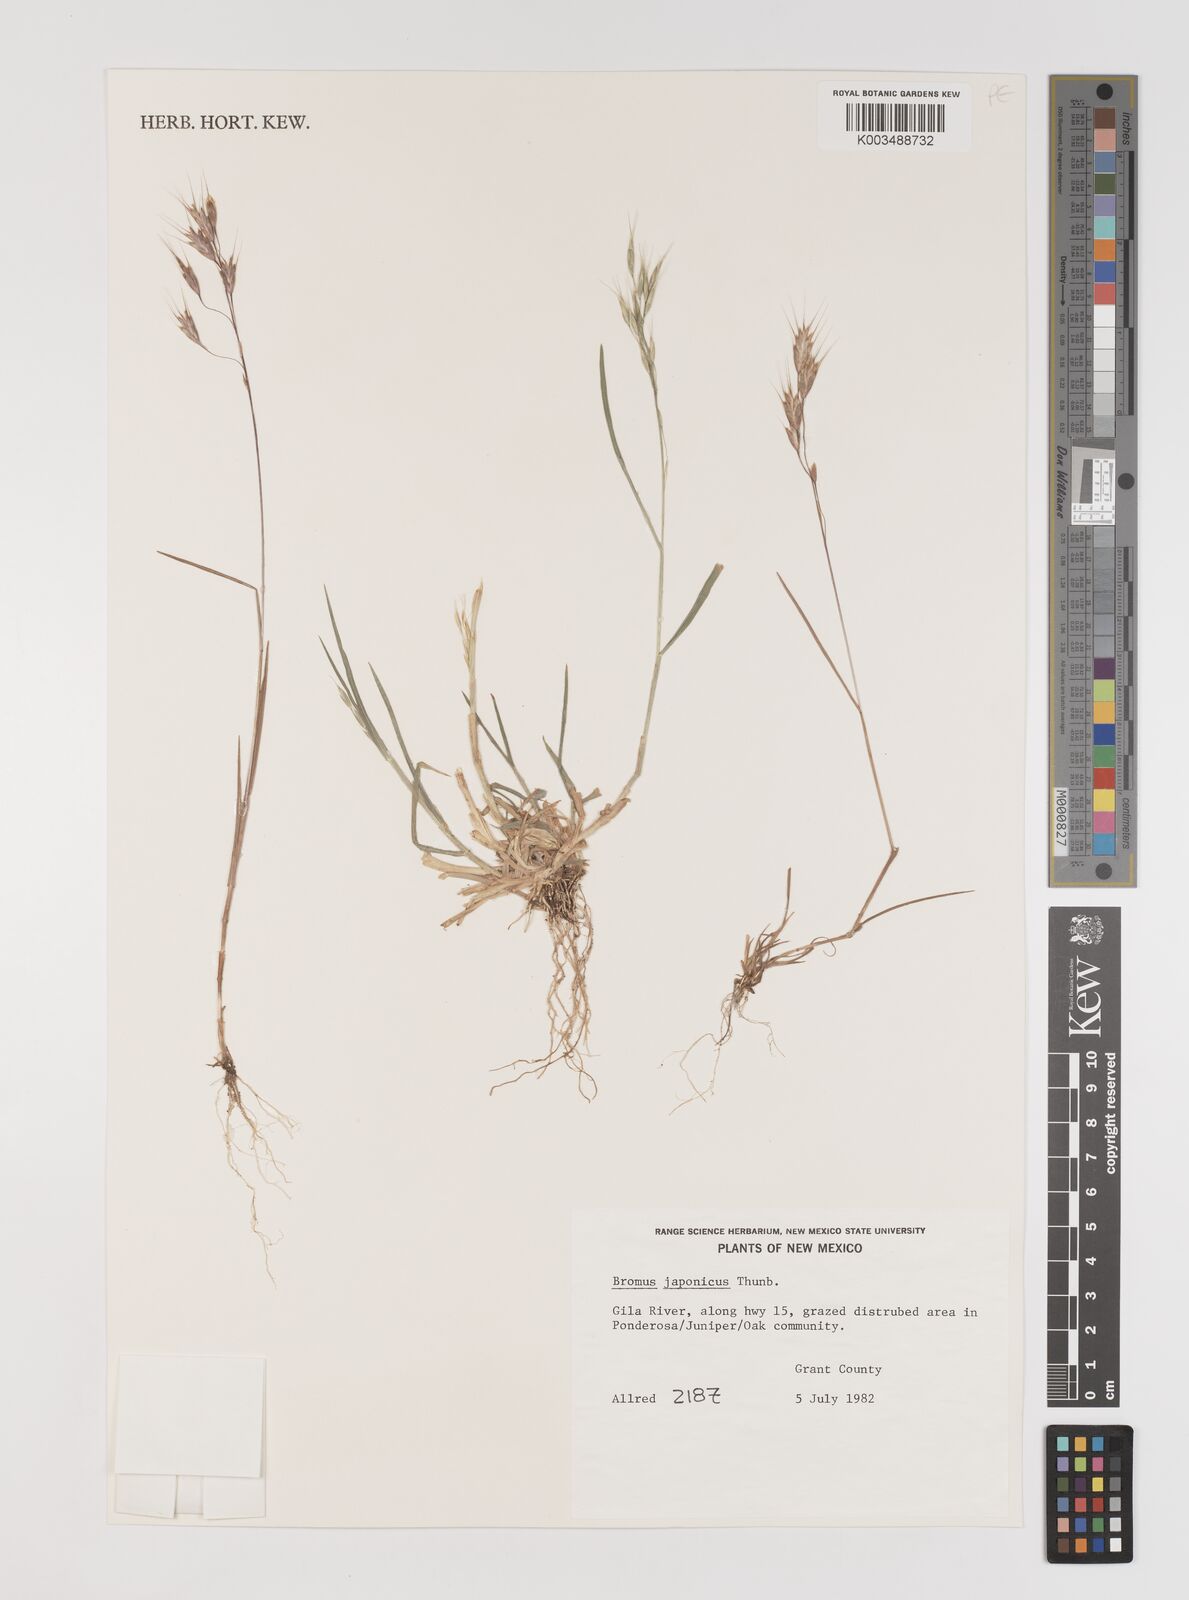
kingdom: Plantae
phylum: Tracheophyta
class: Liliopsida
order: Poales
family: Poaceae
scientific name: Poaceae
